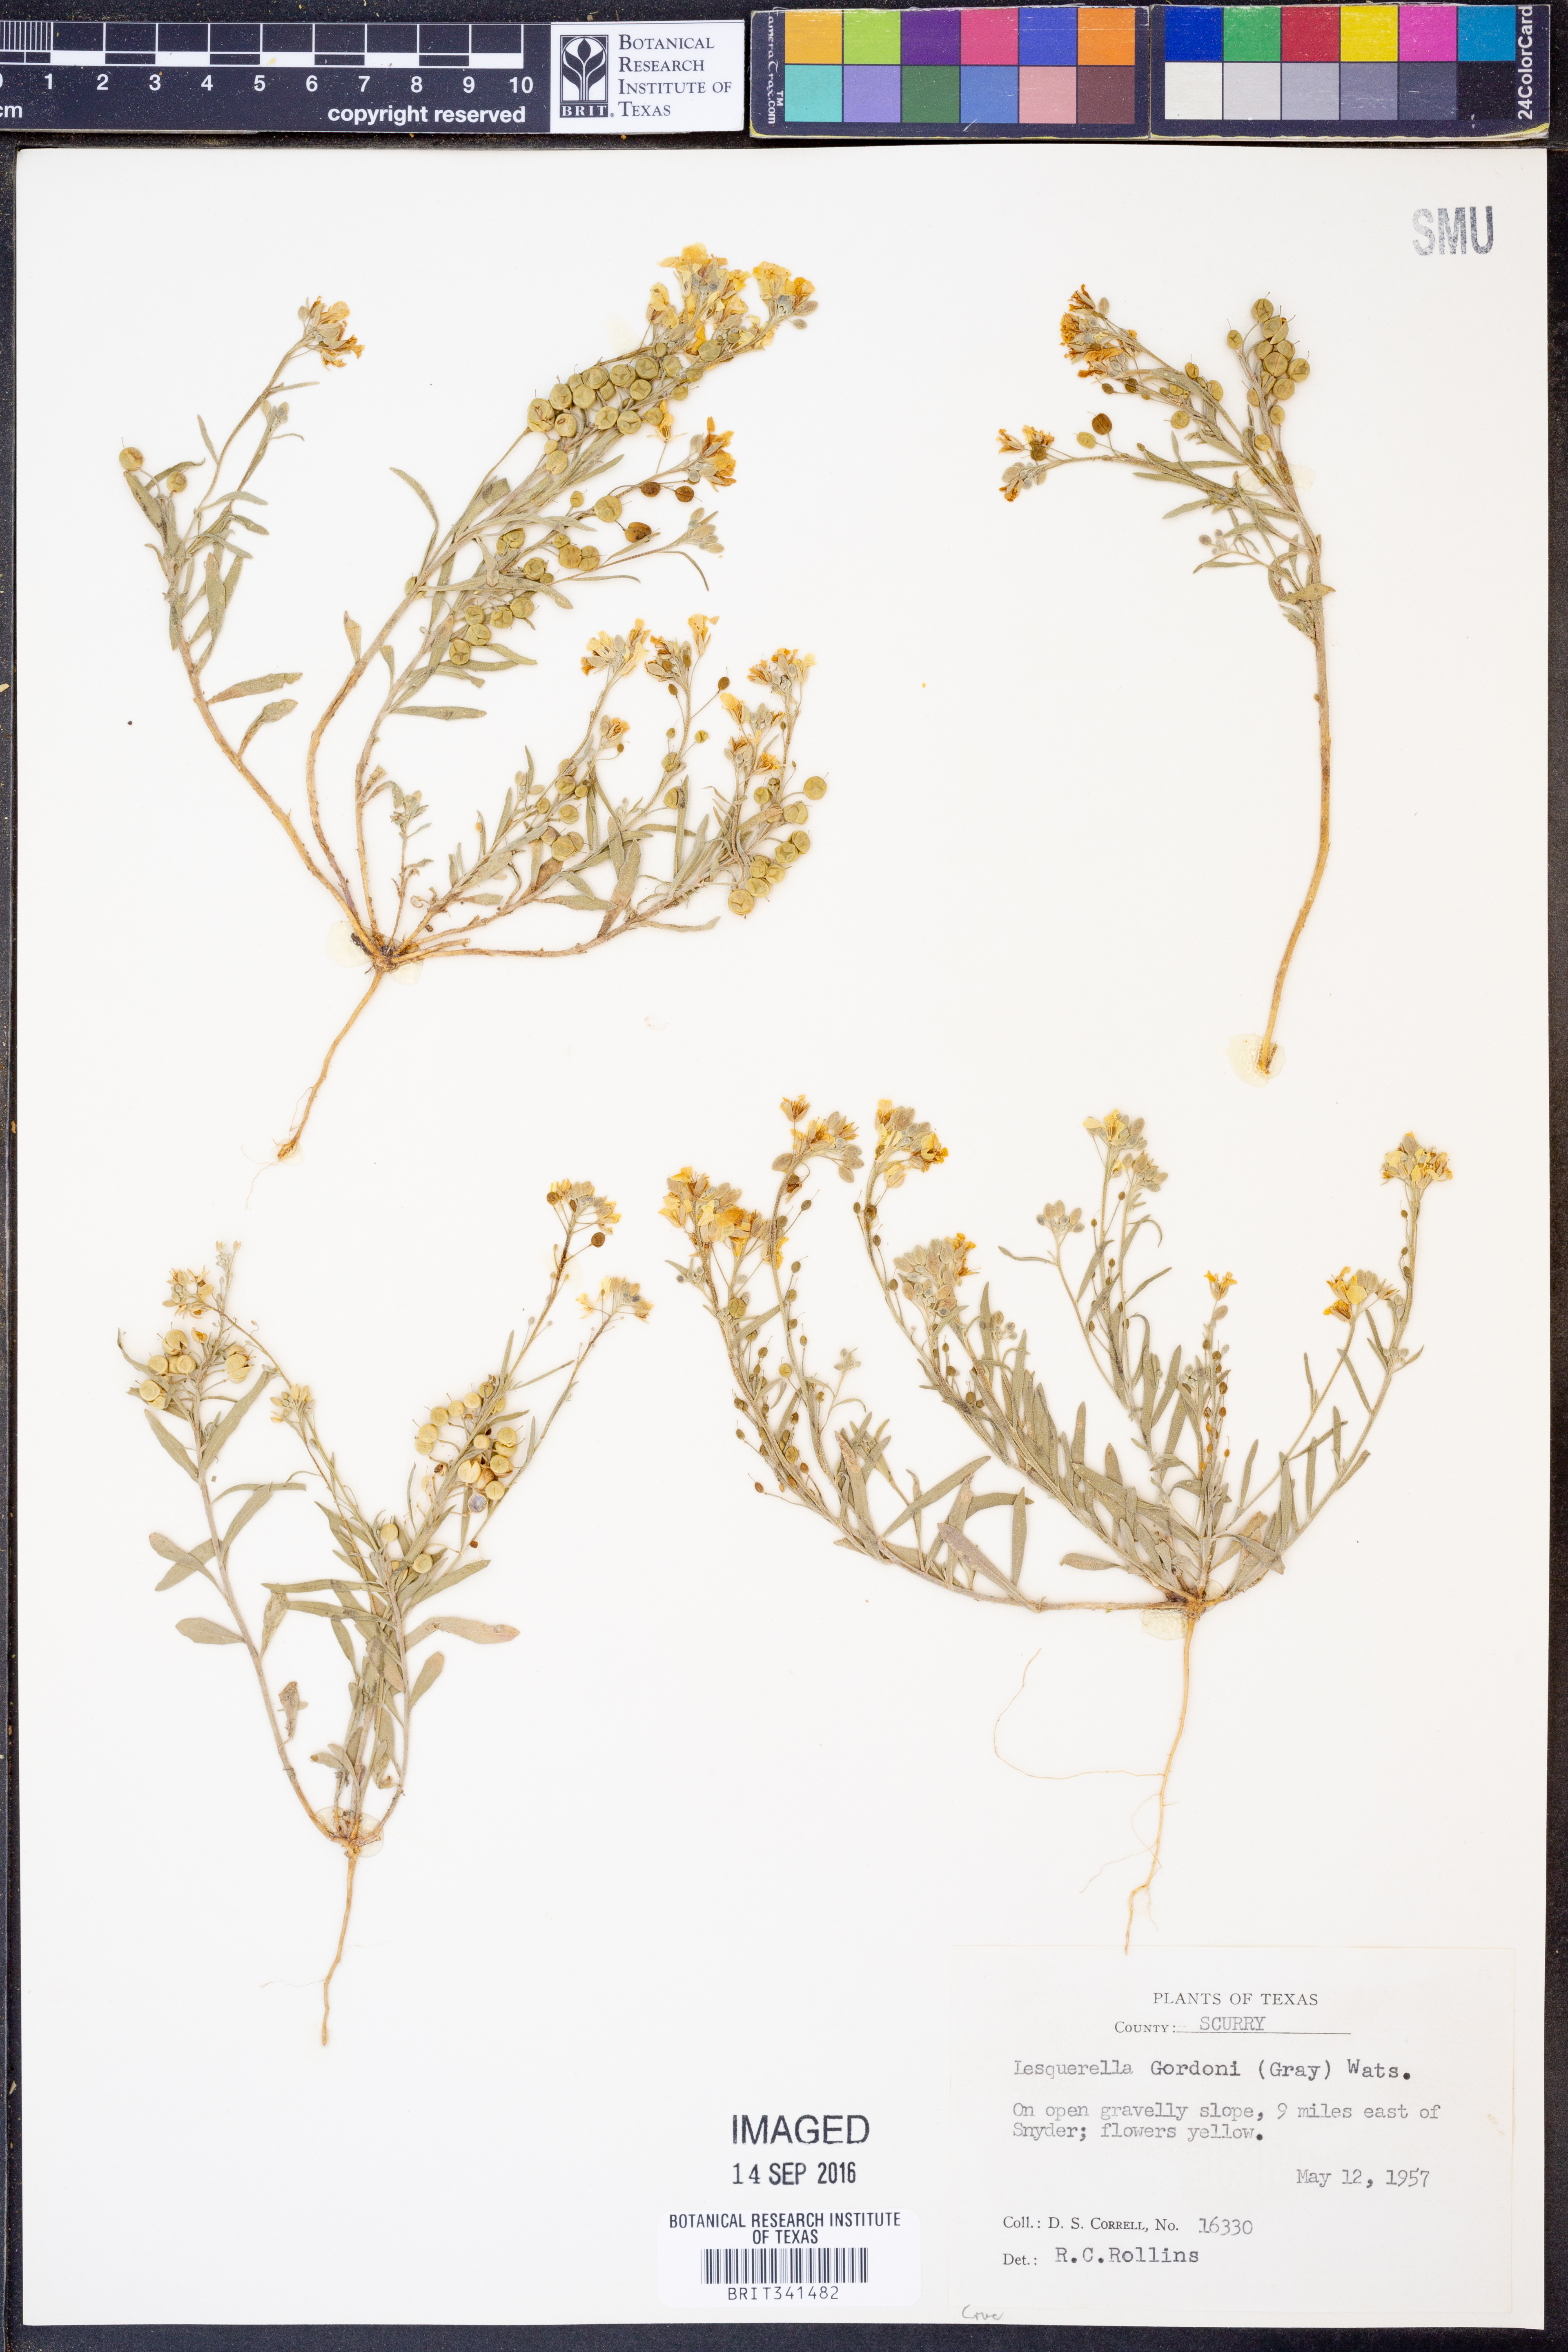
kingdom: Plantae
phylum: Tracheophyta
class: Magnoliopsida
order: Brassicales
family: Brassicaceae
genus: Physaria
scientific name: Physaria gordonii
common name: Gordon's bladderpod
